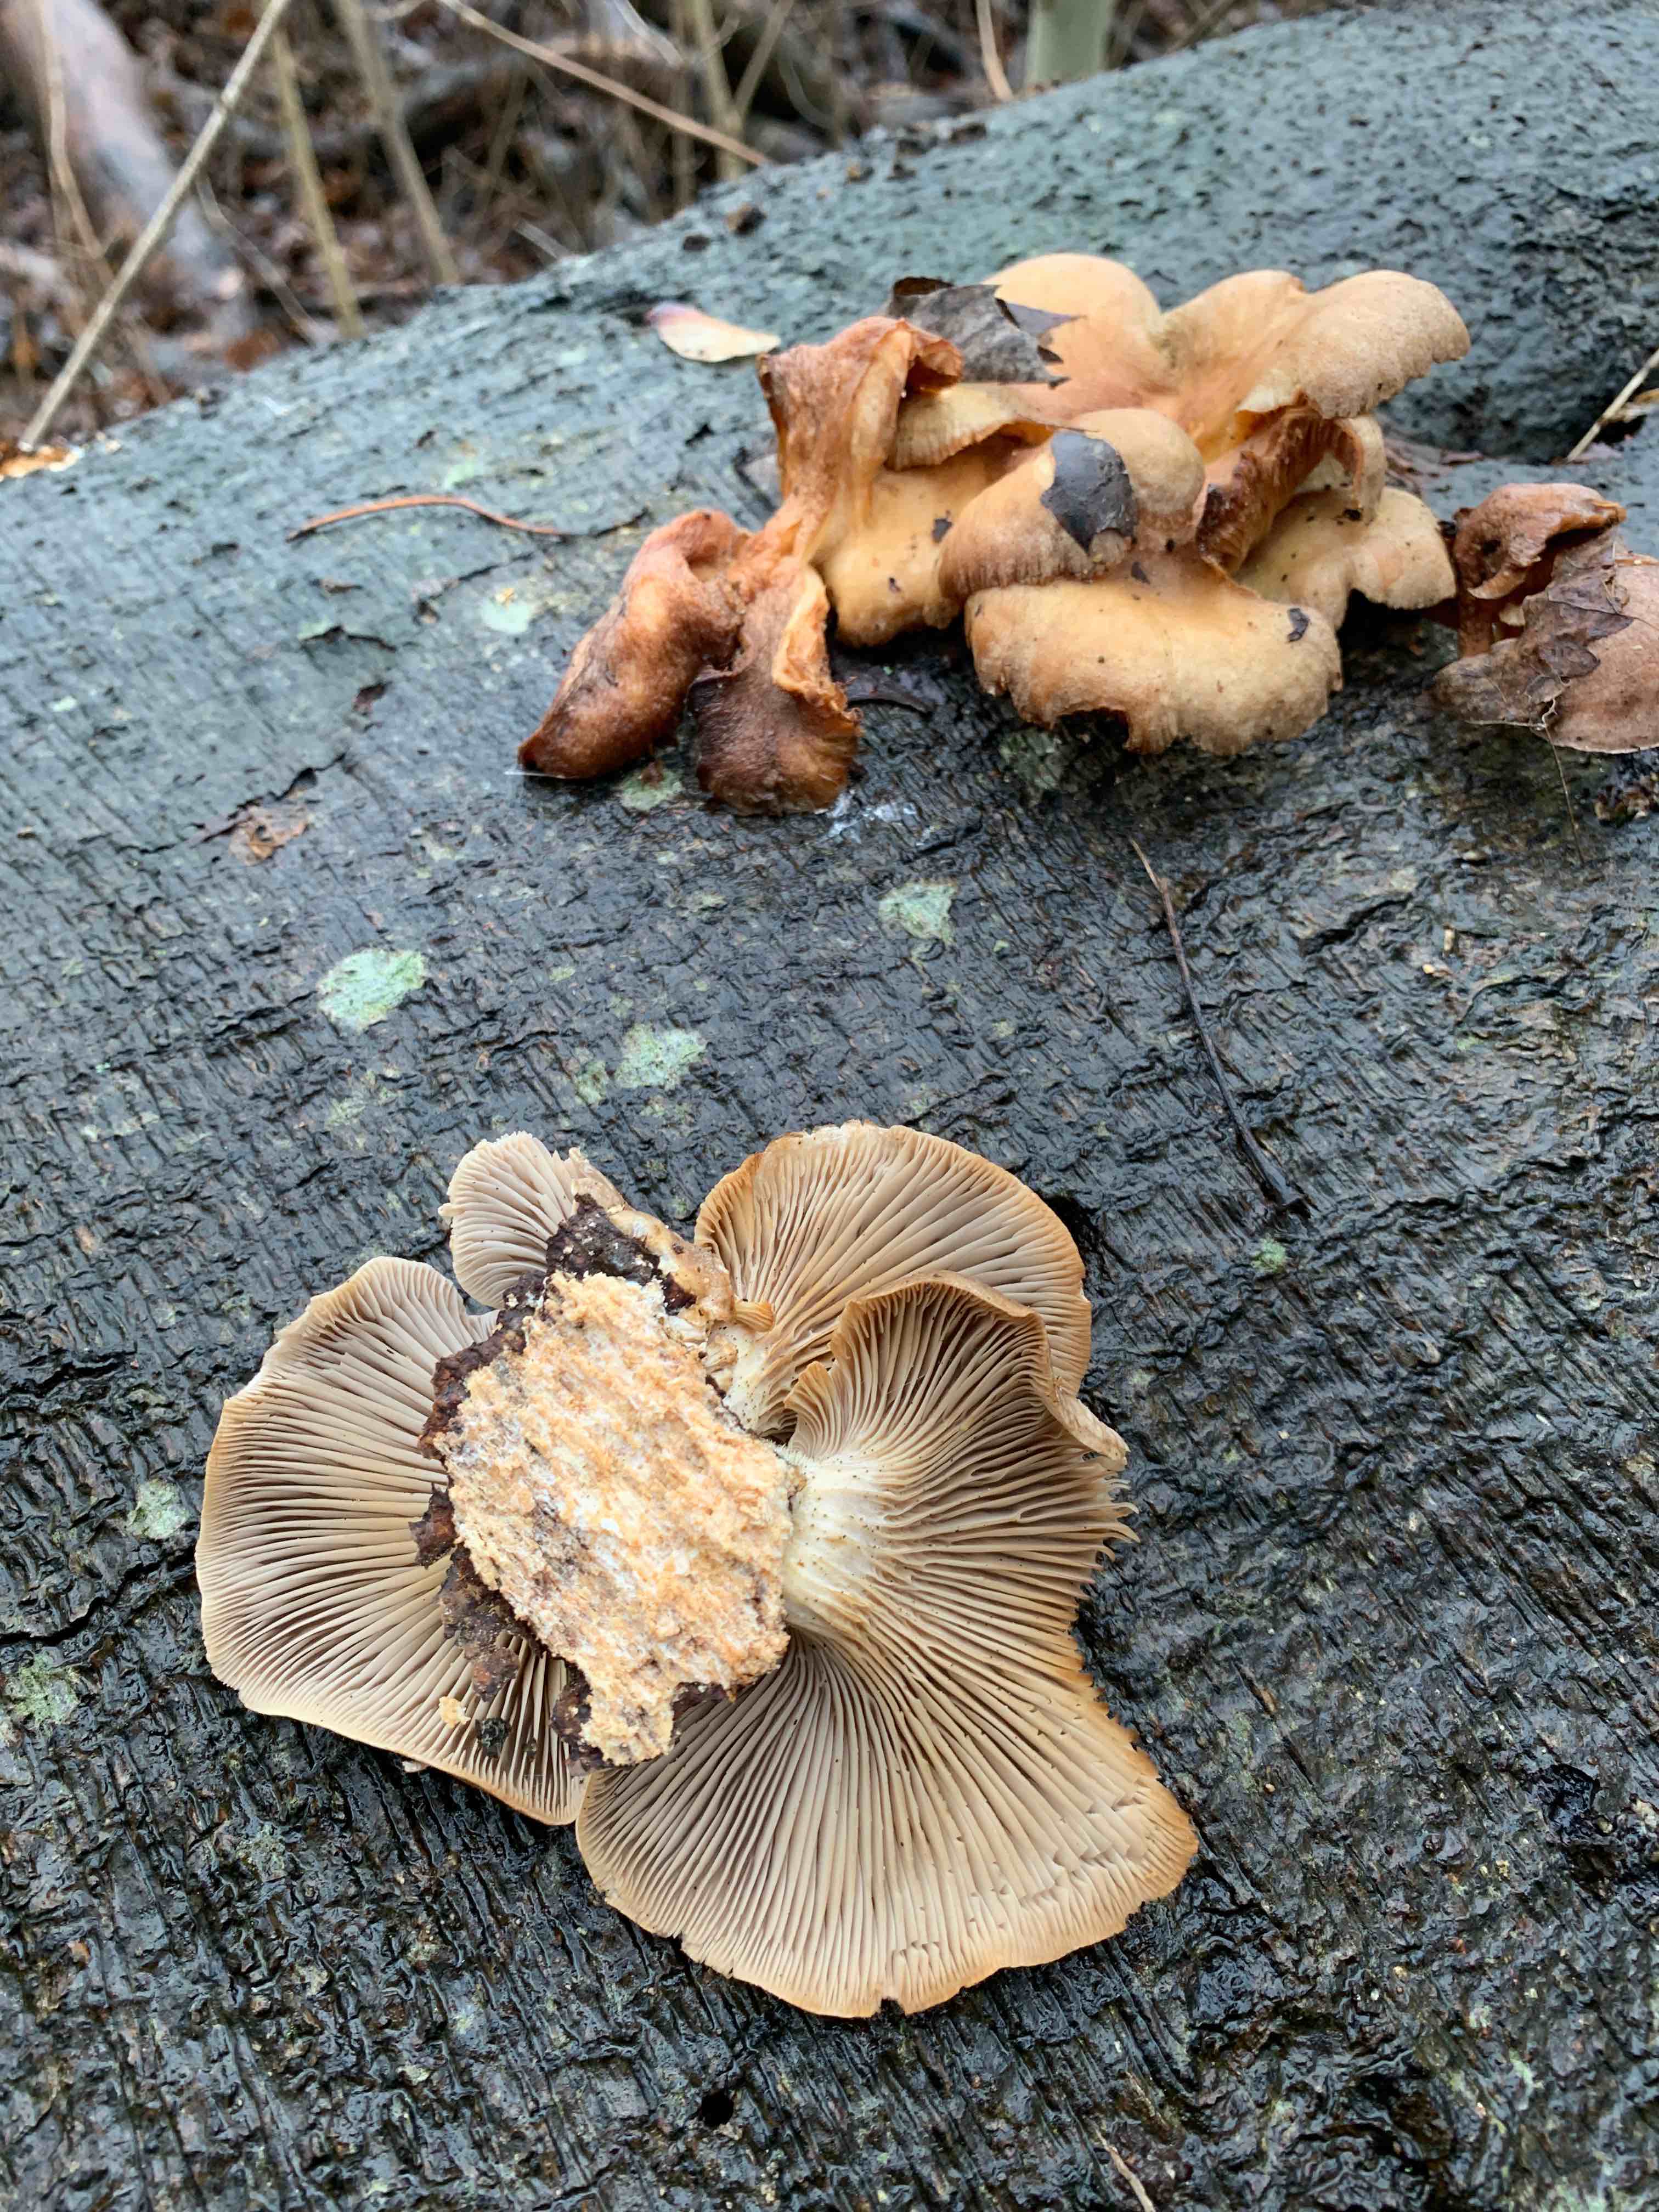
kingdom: Fungi
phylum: Basidiomycota
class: Agaricomycetes
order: Agaricales
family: Pleurotaceae
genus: Pleurotus
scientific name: Pleurotus ostreatus
